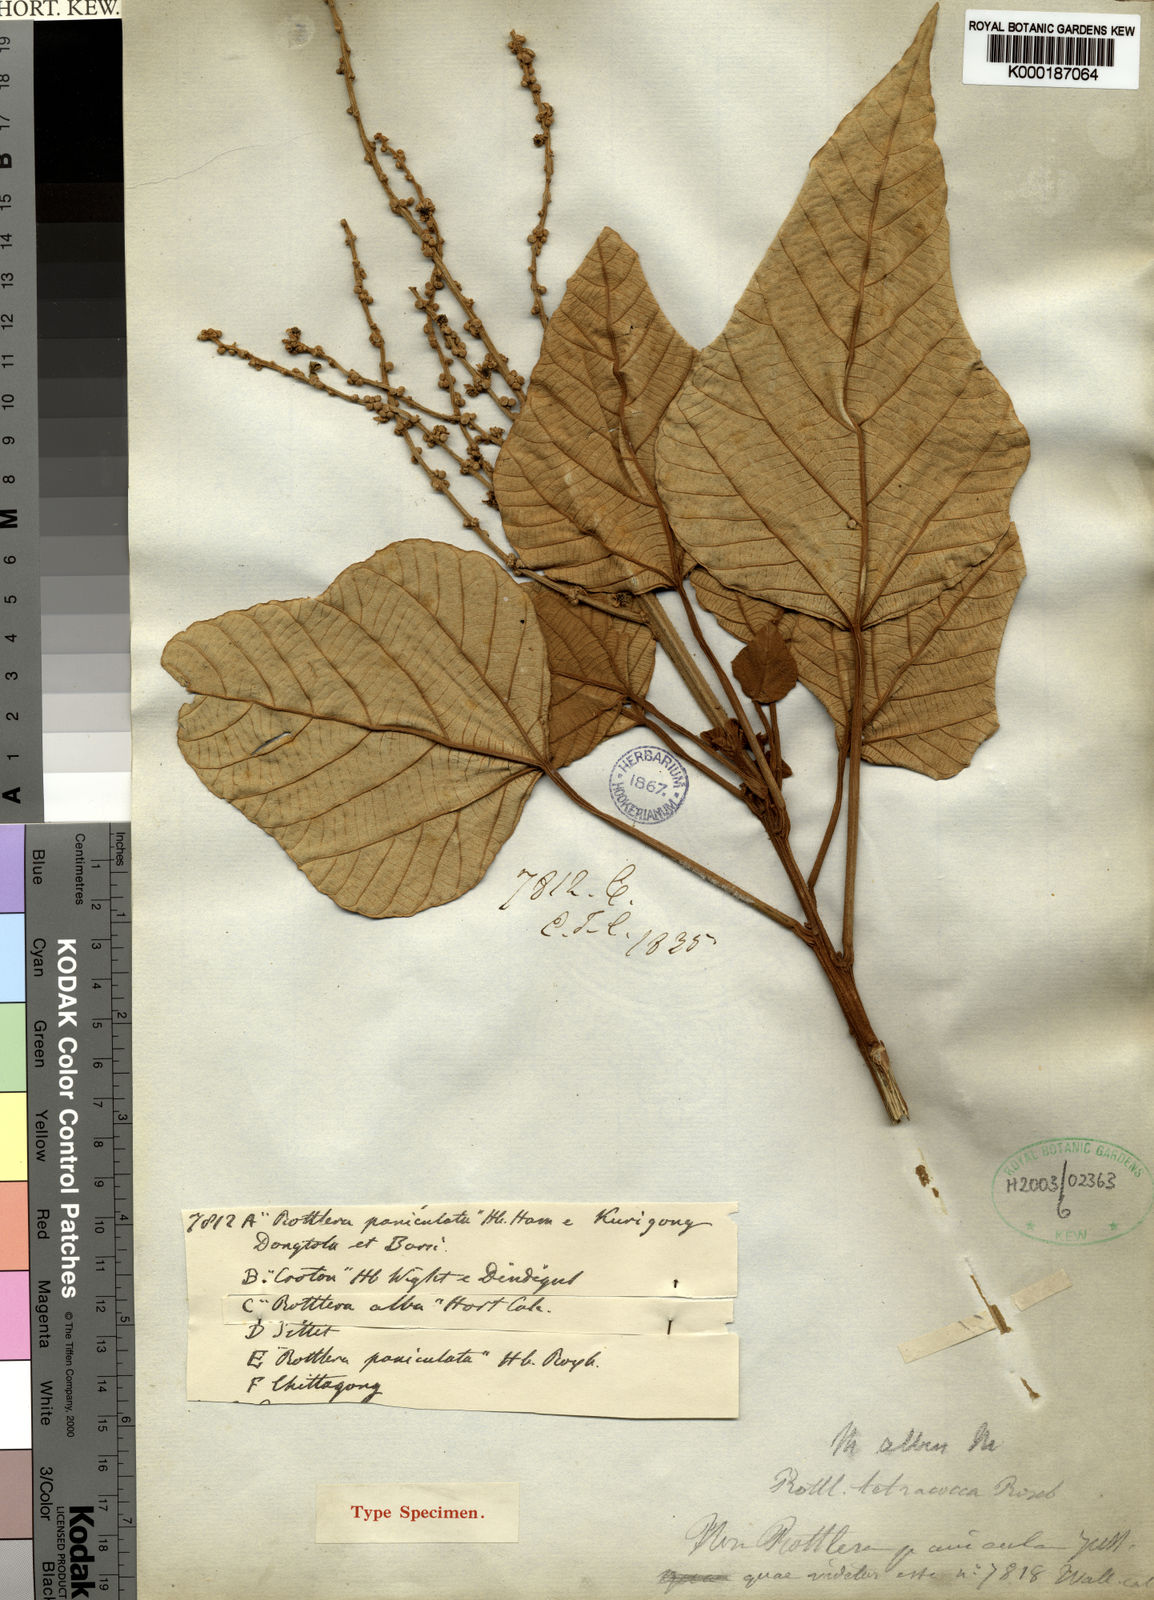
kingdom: Plantae
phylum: Tracheophyta
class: Magnoliopsida
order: Malpighiales
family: Euphorbiaceae
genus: Mallotus
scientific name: Mallotus tetracoccus
